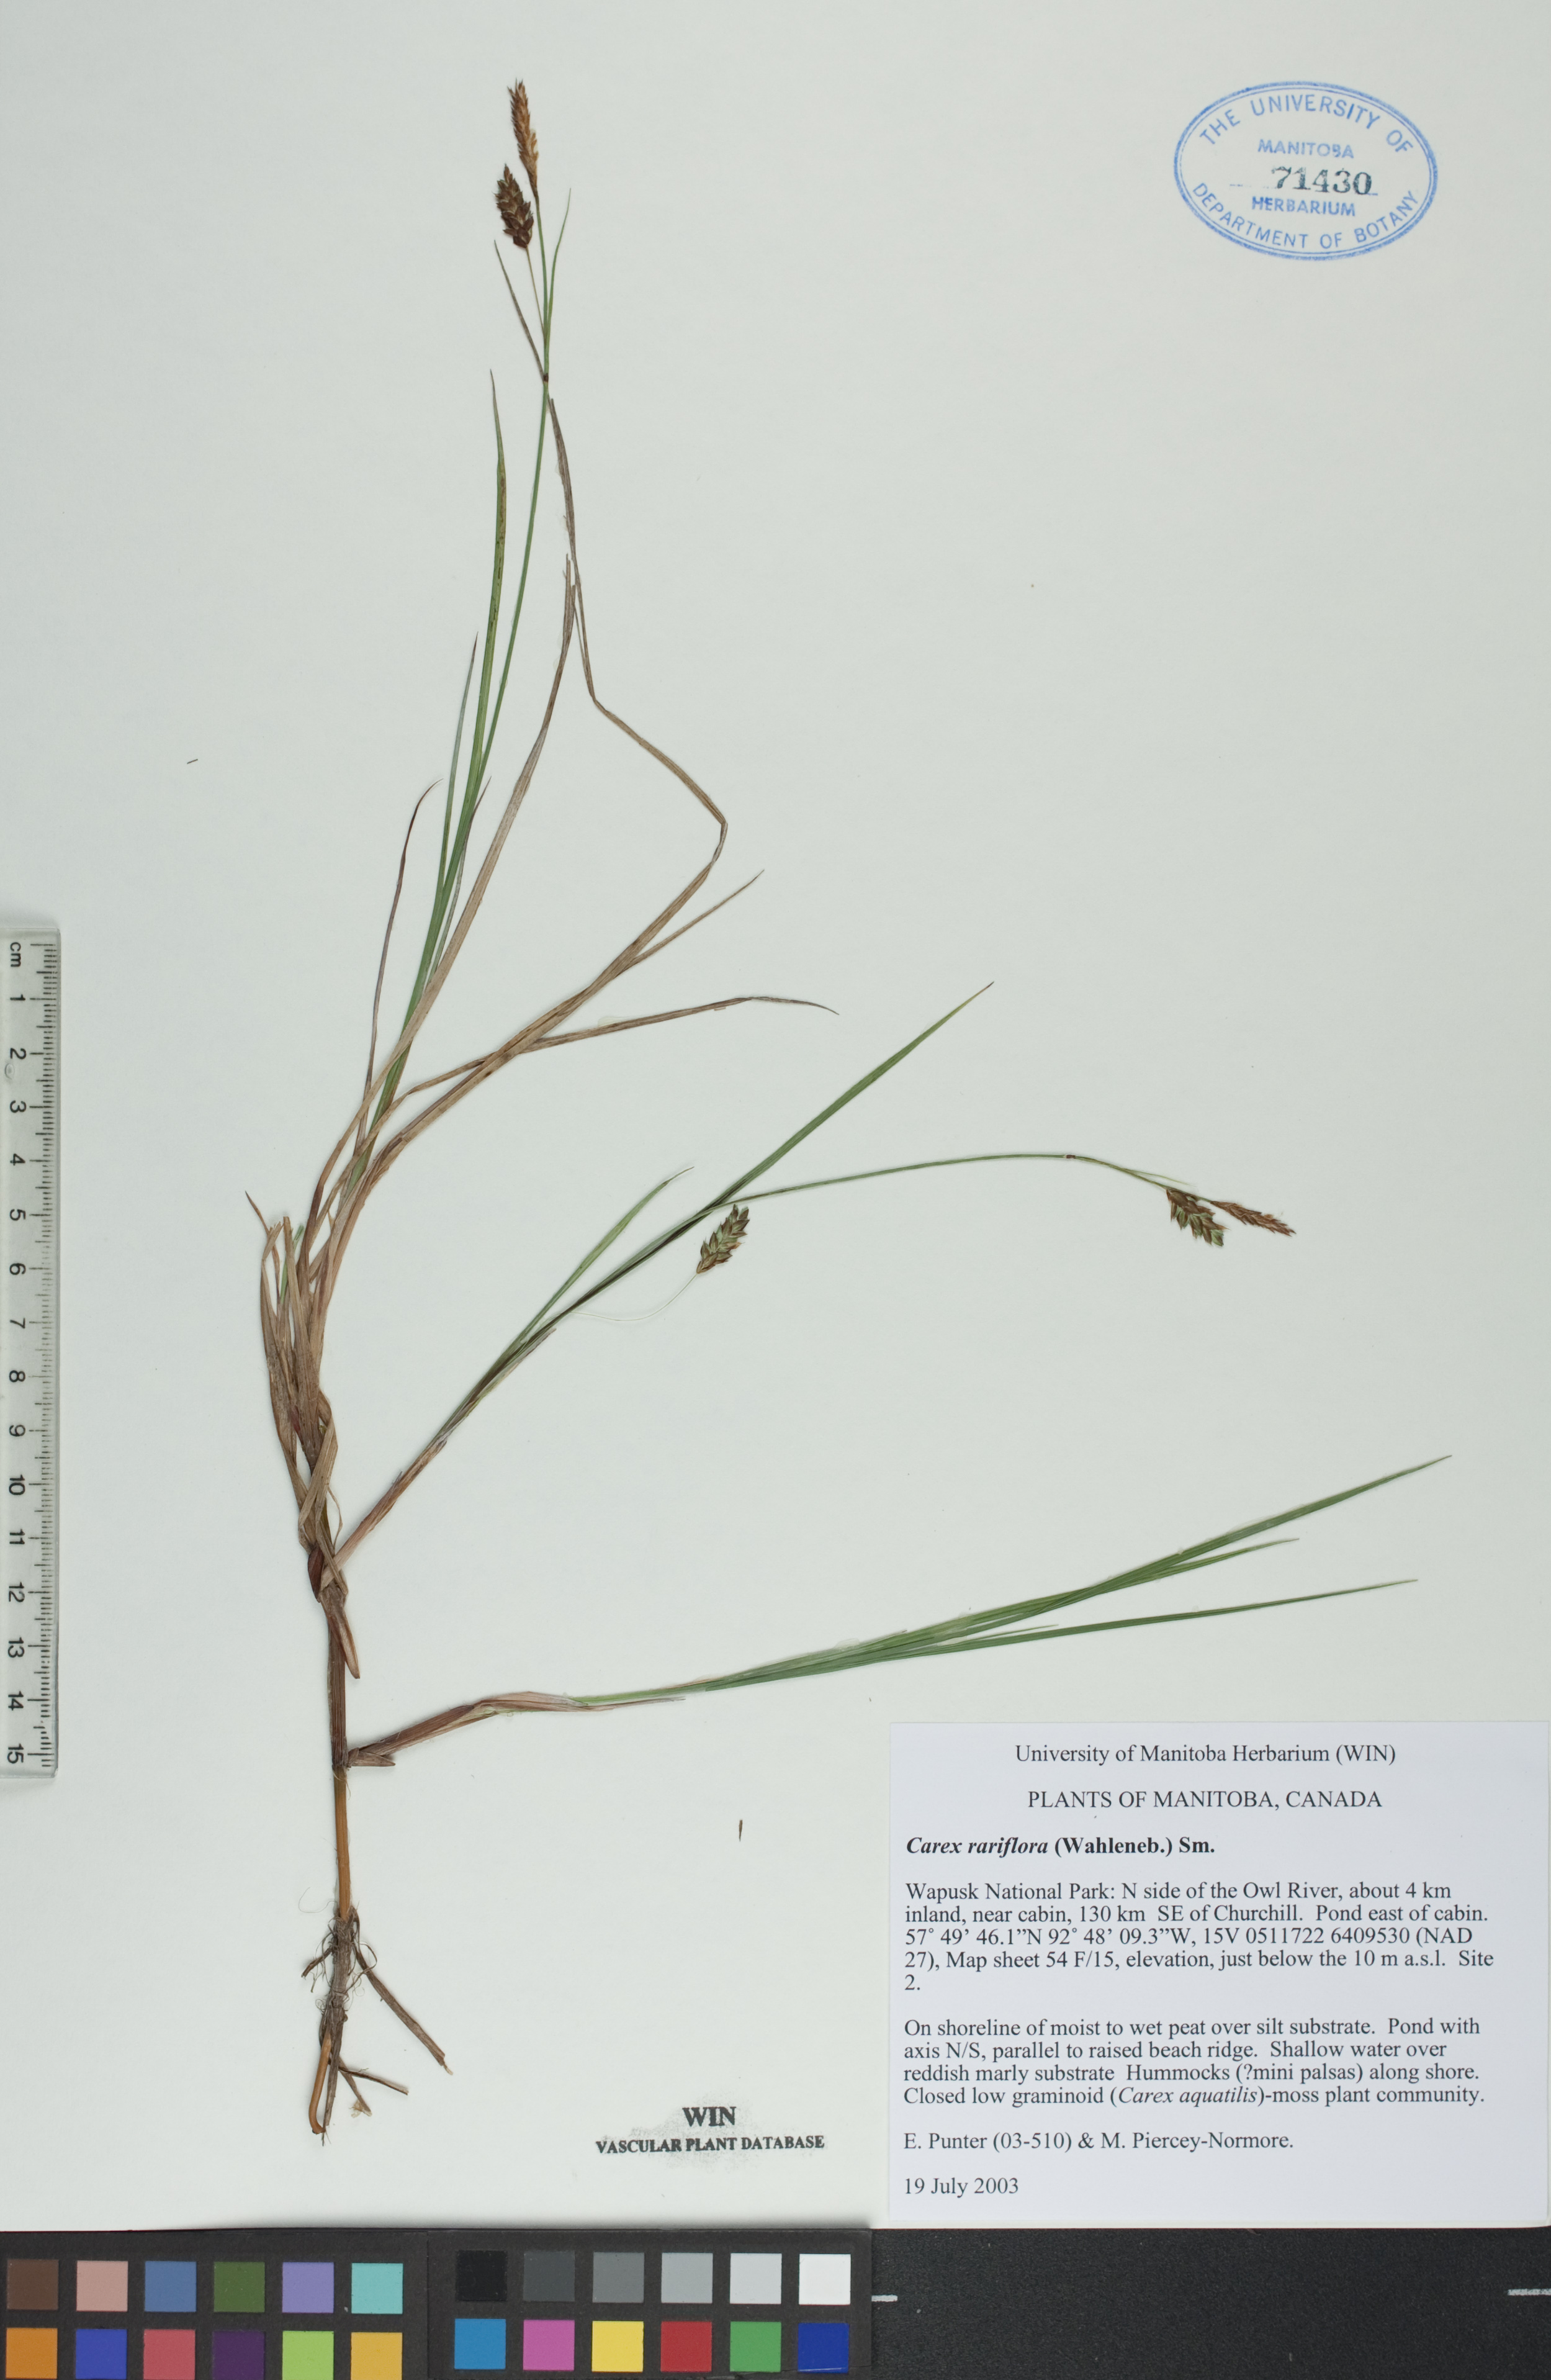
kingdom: Plantae
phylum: Tracheophyta
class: Liliopsida
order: Poales
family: Cyperaceae
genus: Carex
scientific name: Carex rariflora
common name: Loose-flowered alpine sedge
